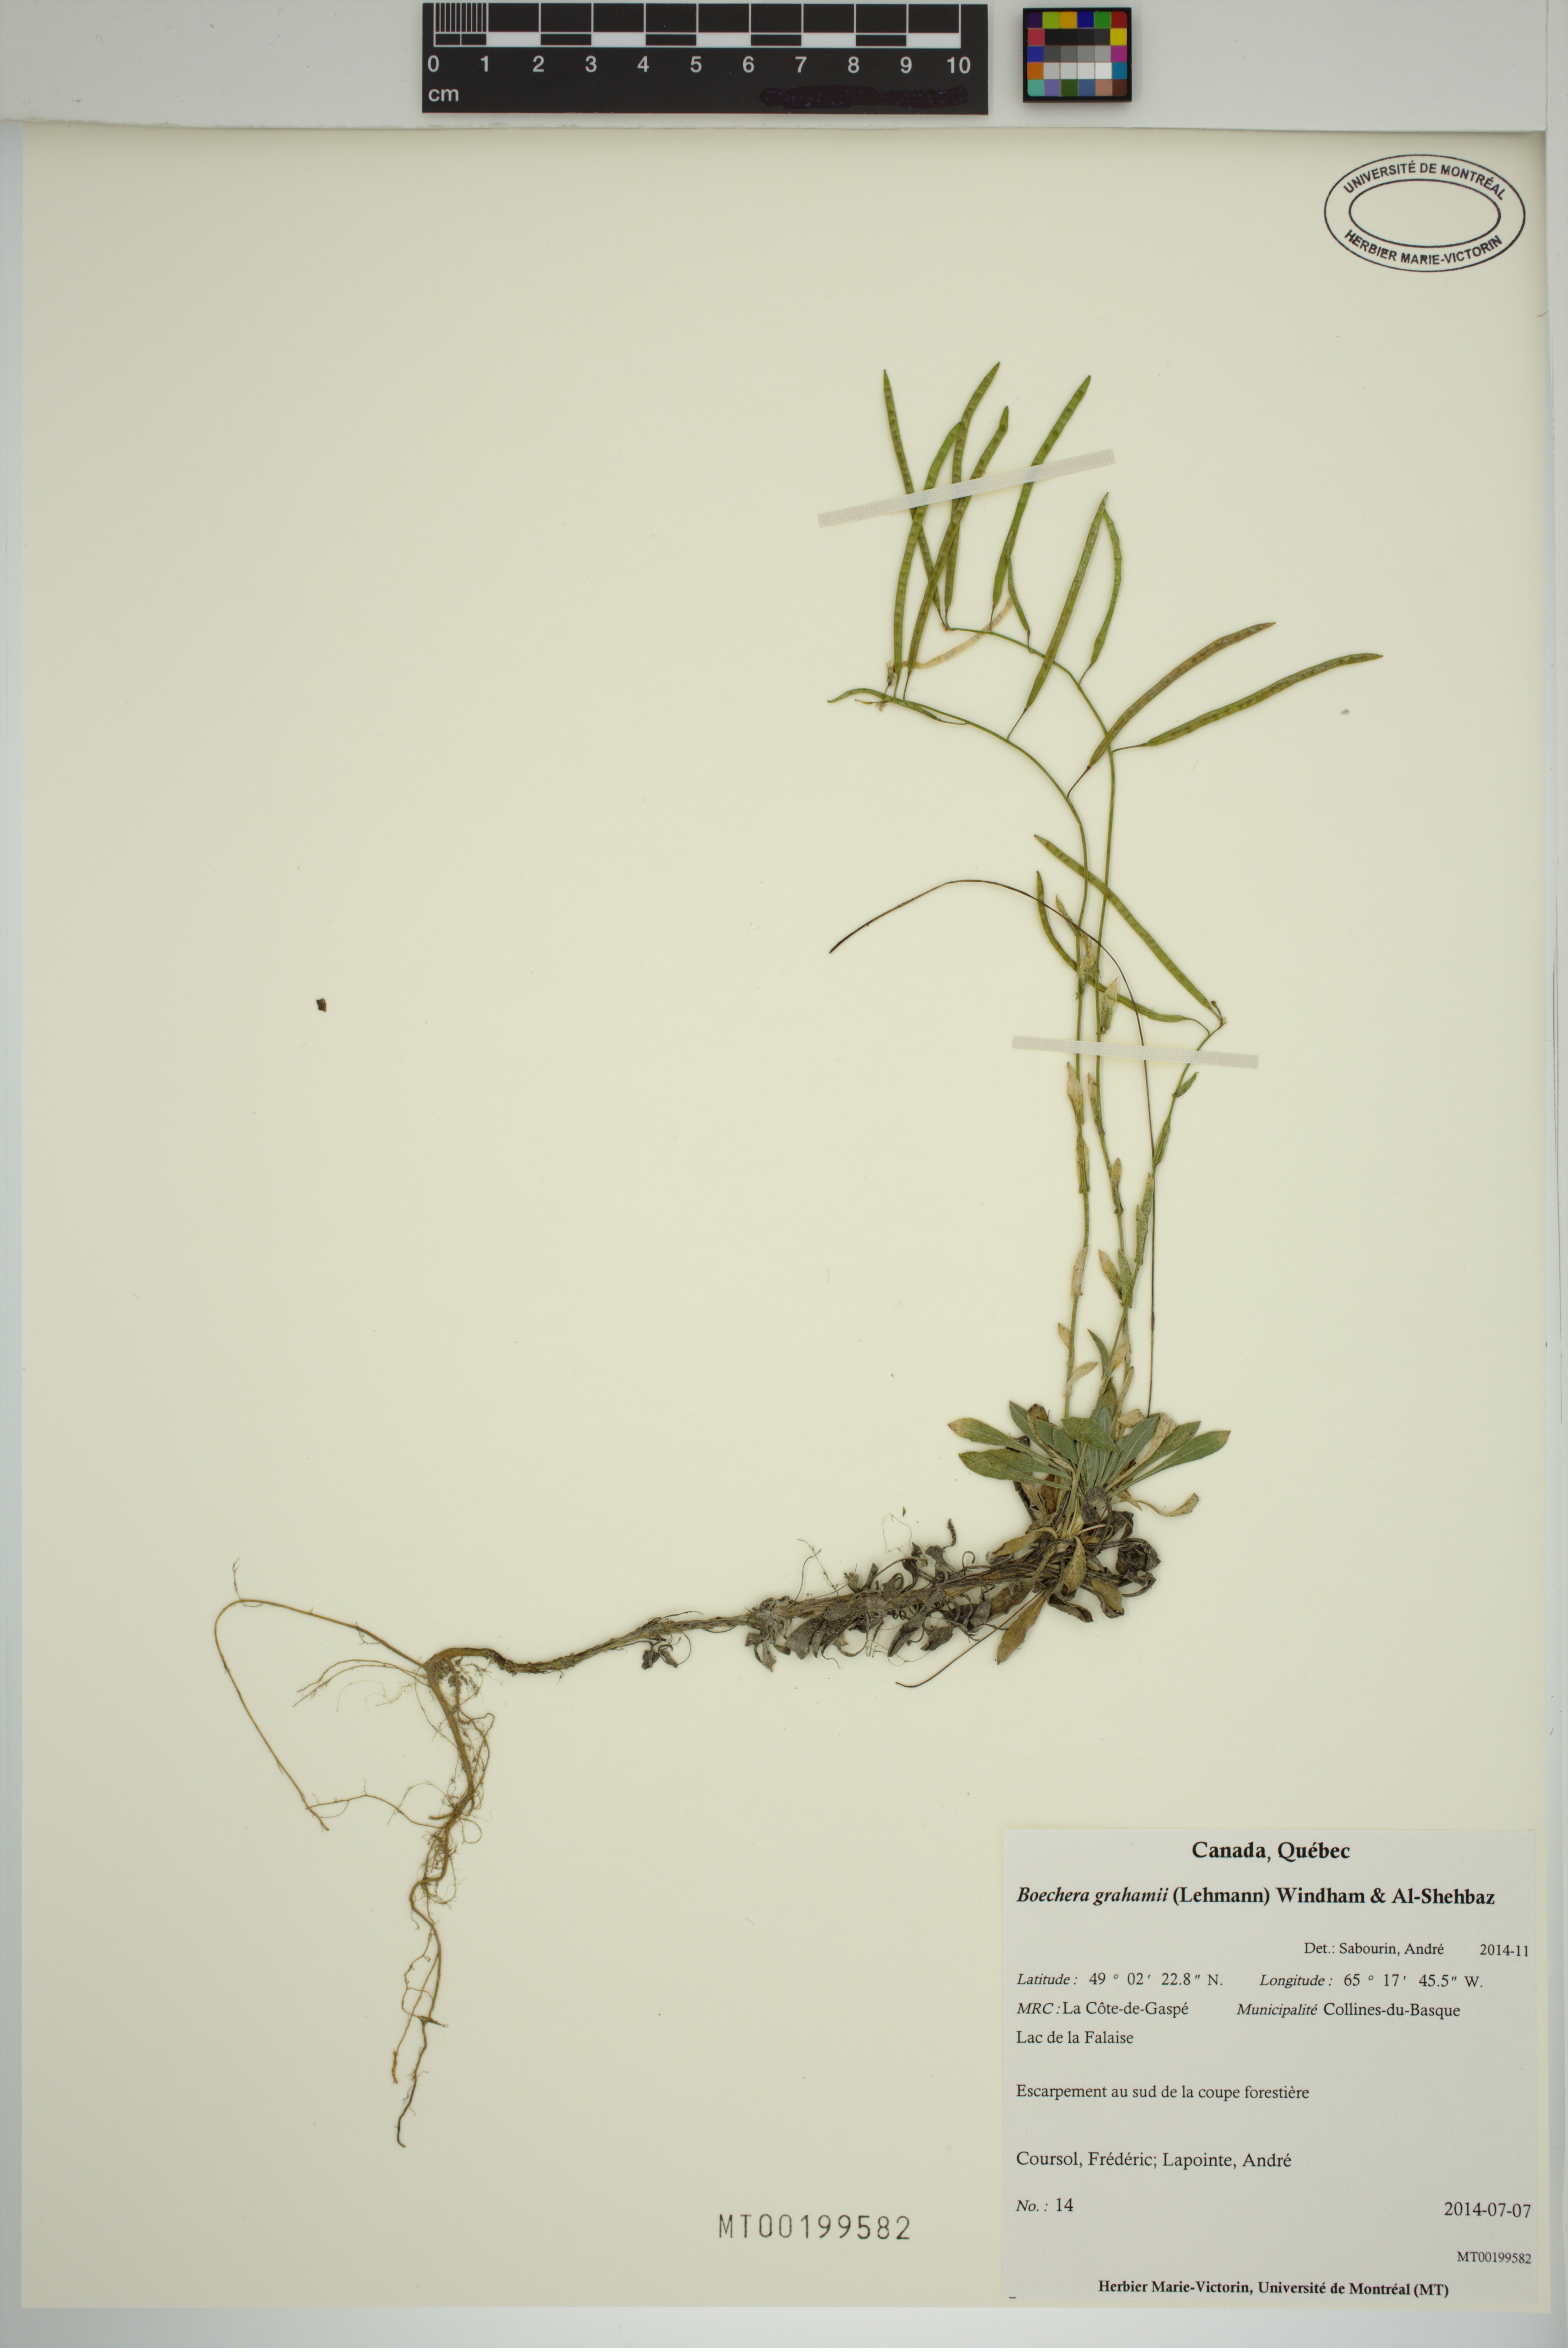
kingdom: Plantae
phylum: Tracheophyta
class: Magnoliopsida
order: Brassicales
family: Brassicaceae
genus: Boechera
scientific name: Boechera grahamii
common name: Graham's rockcress
